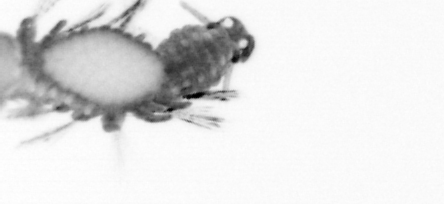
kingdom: Animalia
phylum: Annelida
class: Polychaeta
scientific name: Polychaeta
